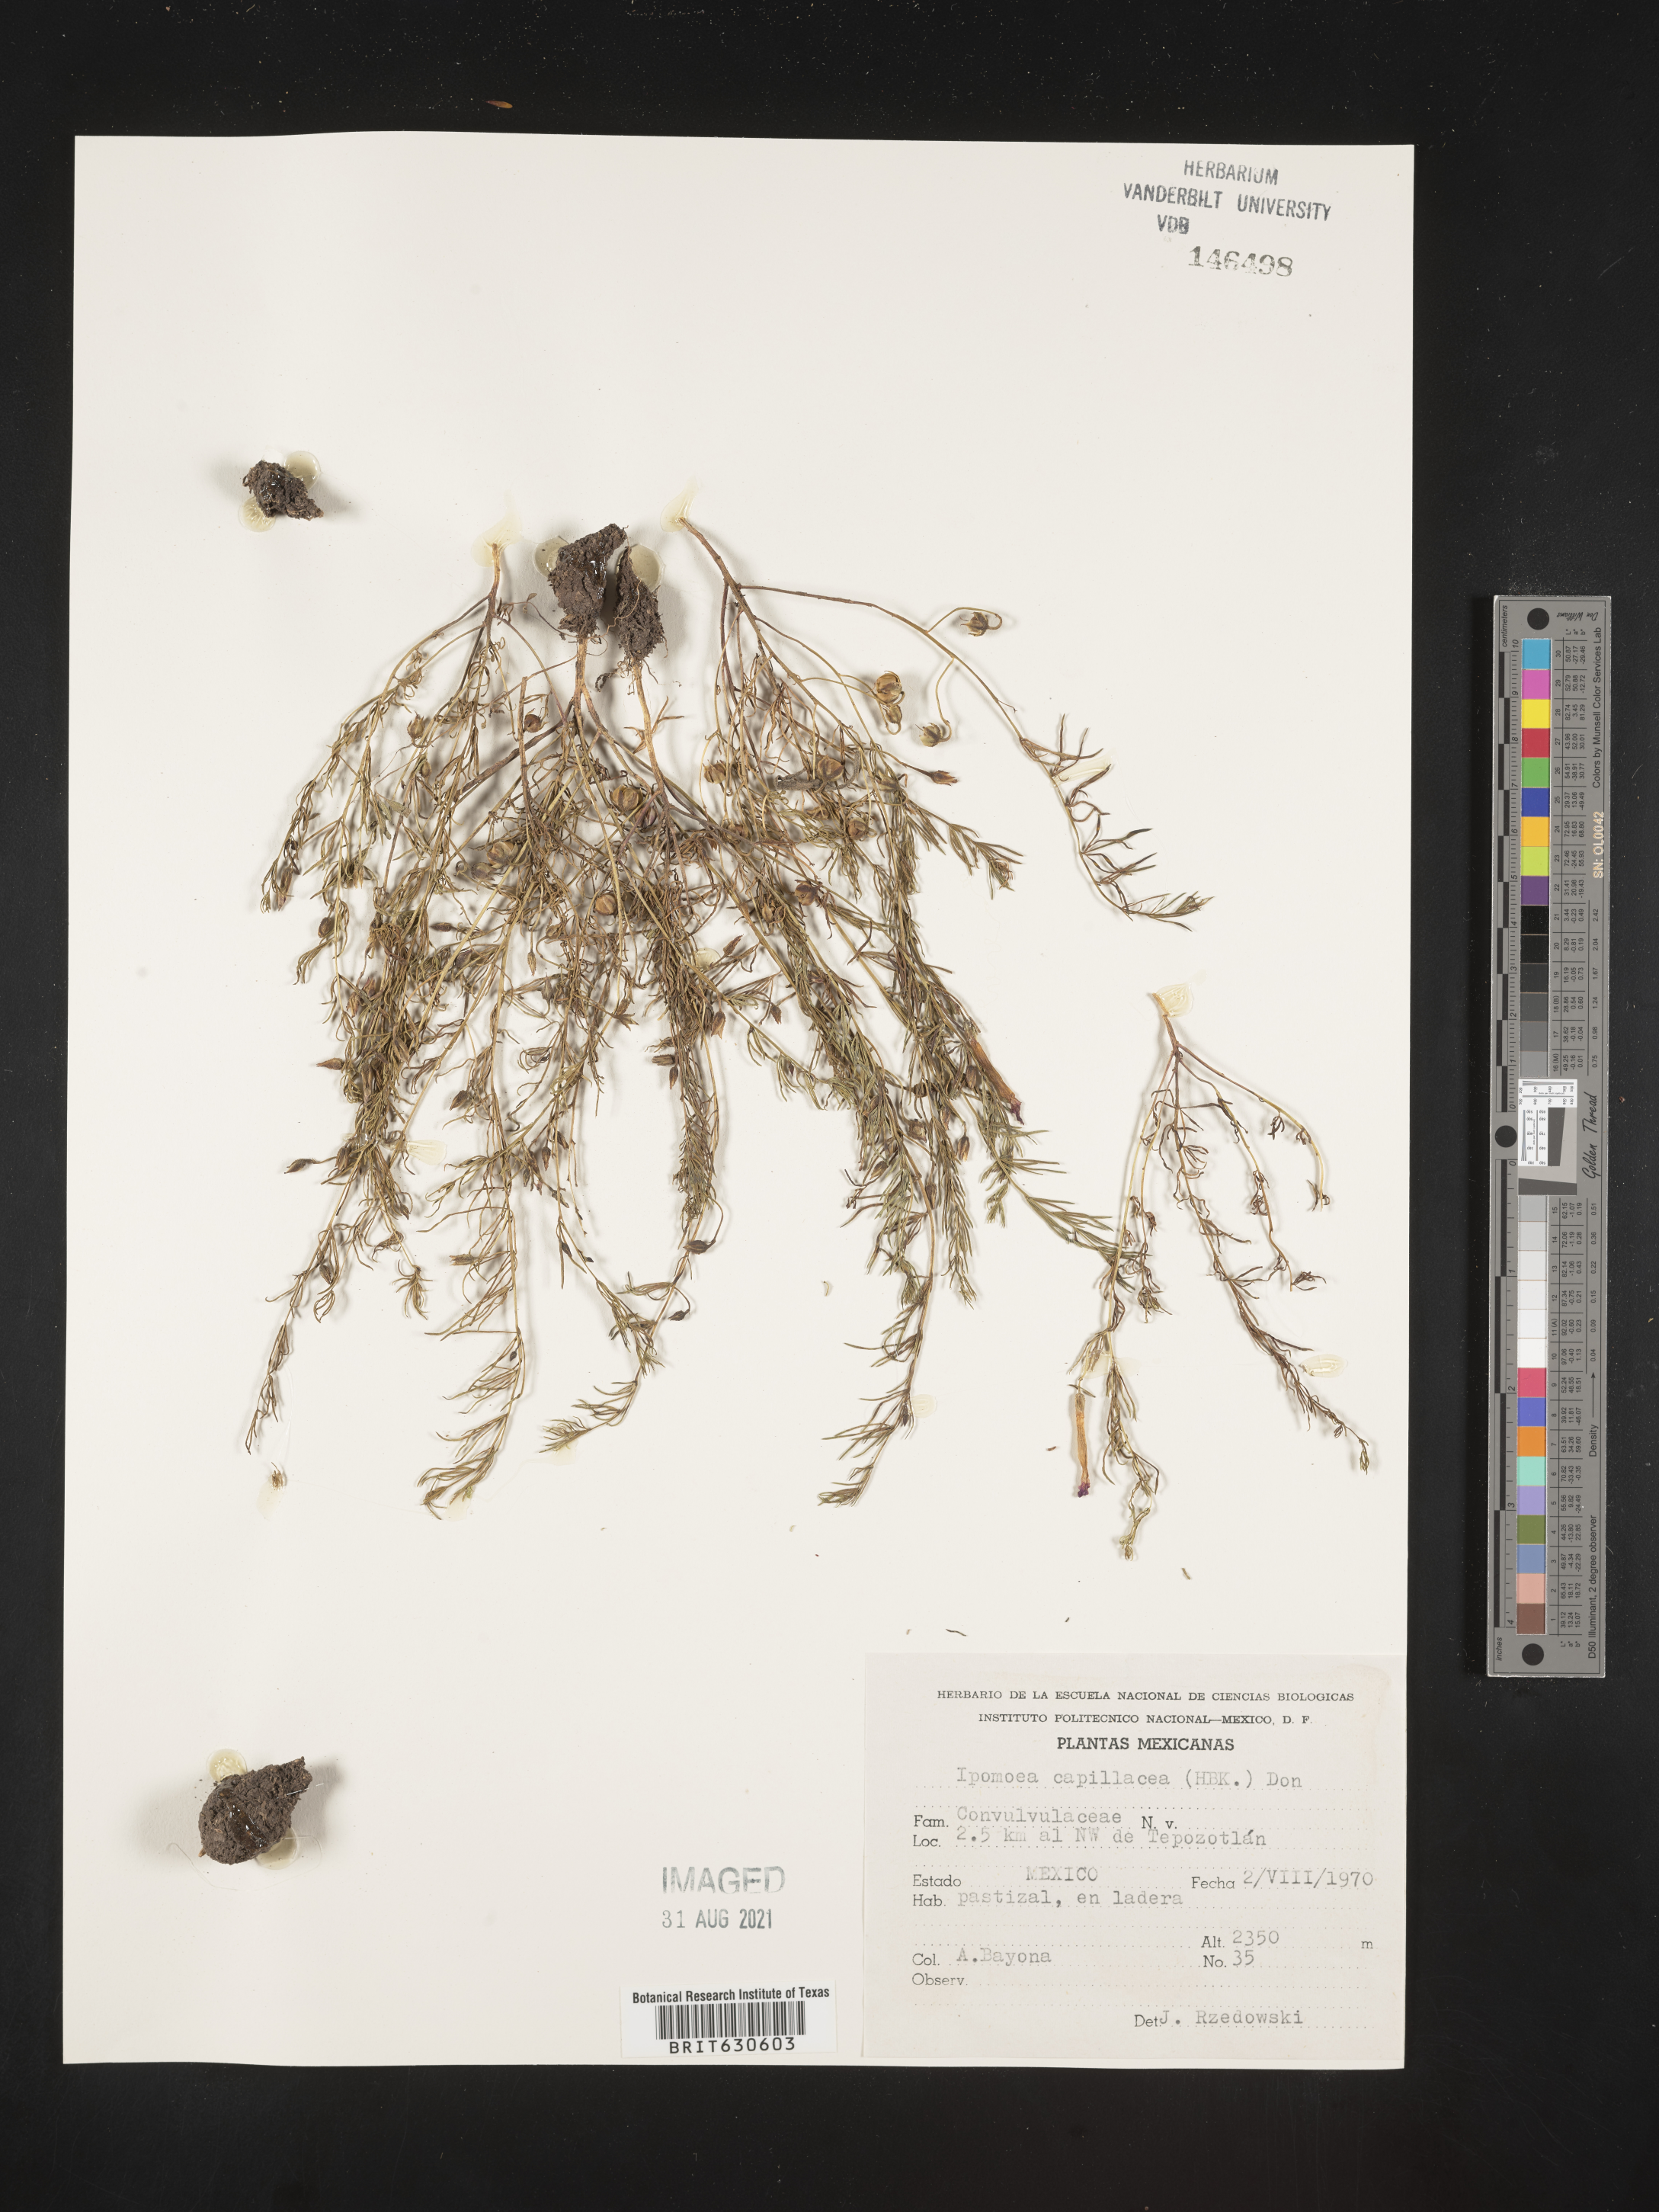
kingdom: Plantae
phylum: Tracheophyta
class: Magnoliopsida
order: Solanales
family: Convolvulaceae
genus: Ipomoea
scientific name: Ipomoea
